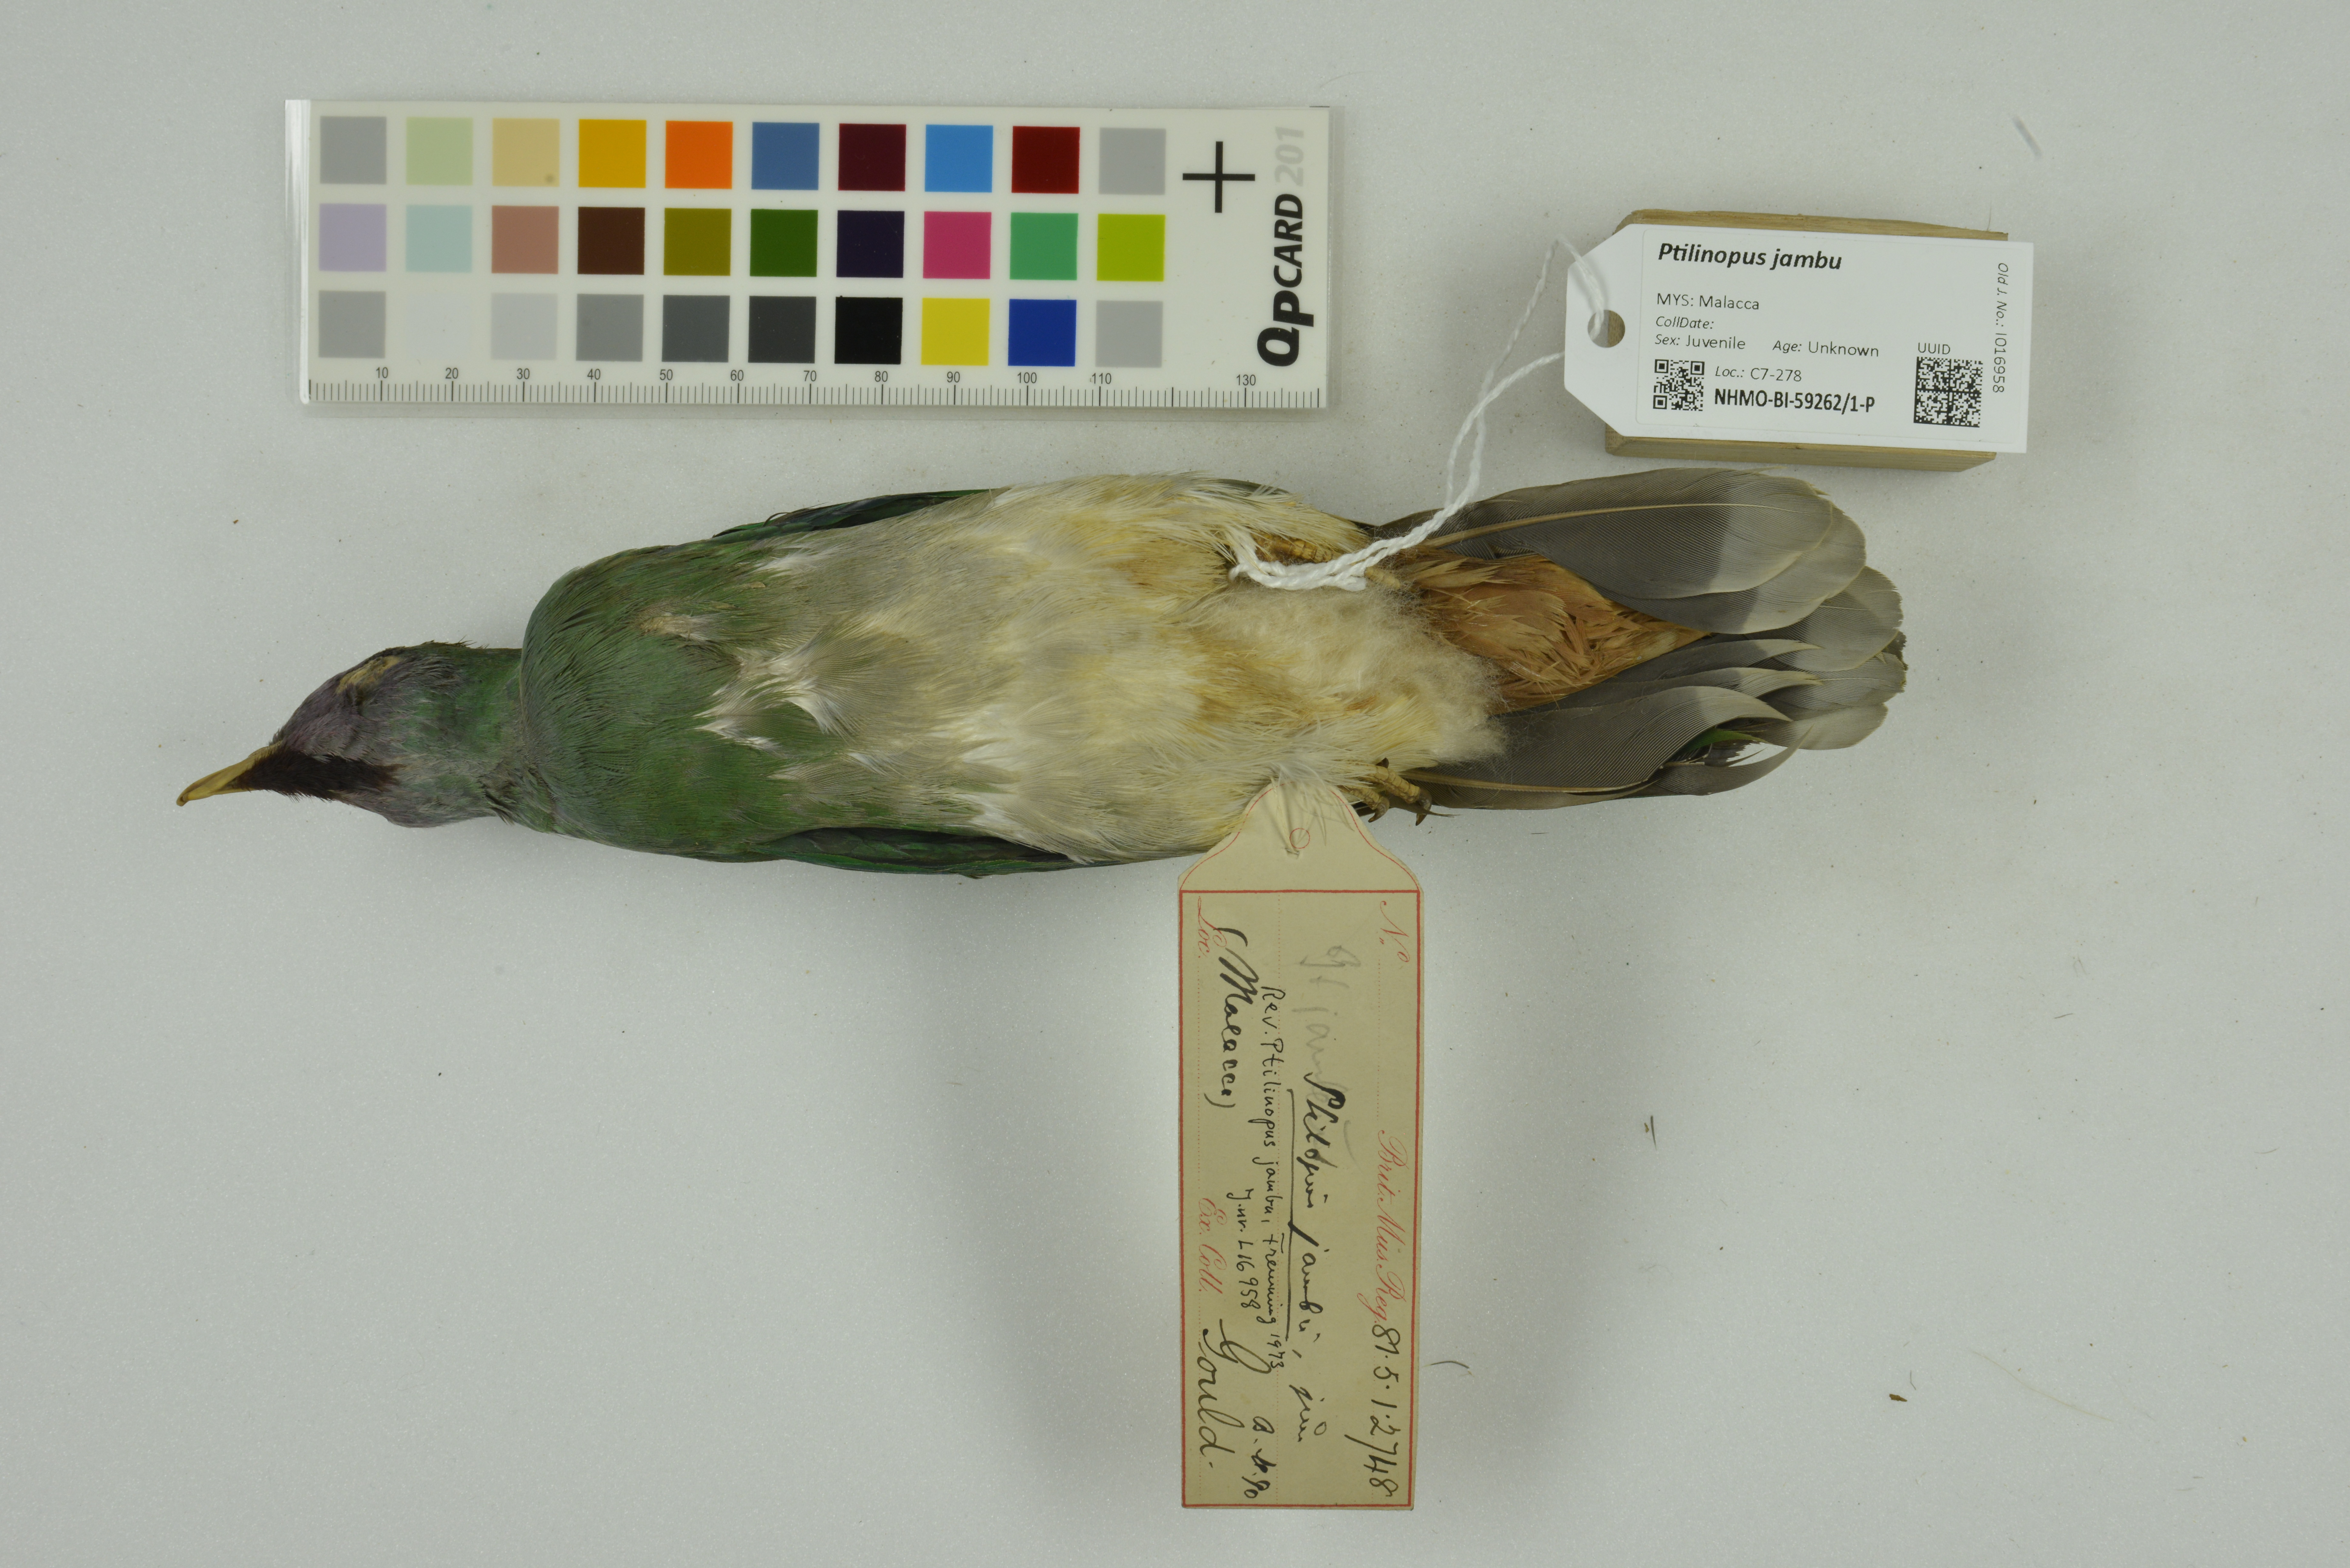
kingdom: Animalia
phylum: Chordata
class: Aves
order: Columbiformes
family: Columbidae
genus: Ptilinopus
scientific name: Ptilinopus jambu
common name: Jambu fruit dove
